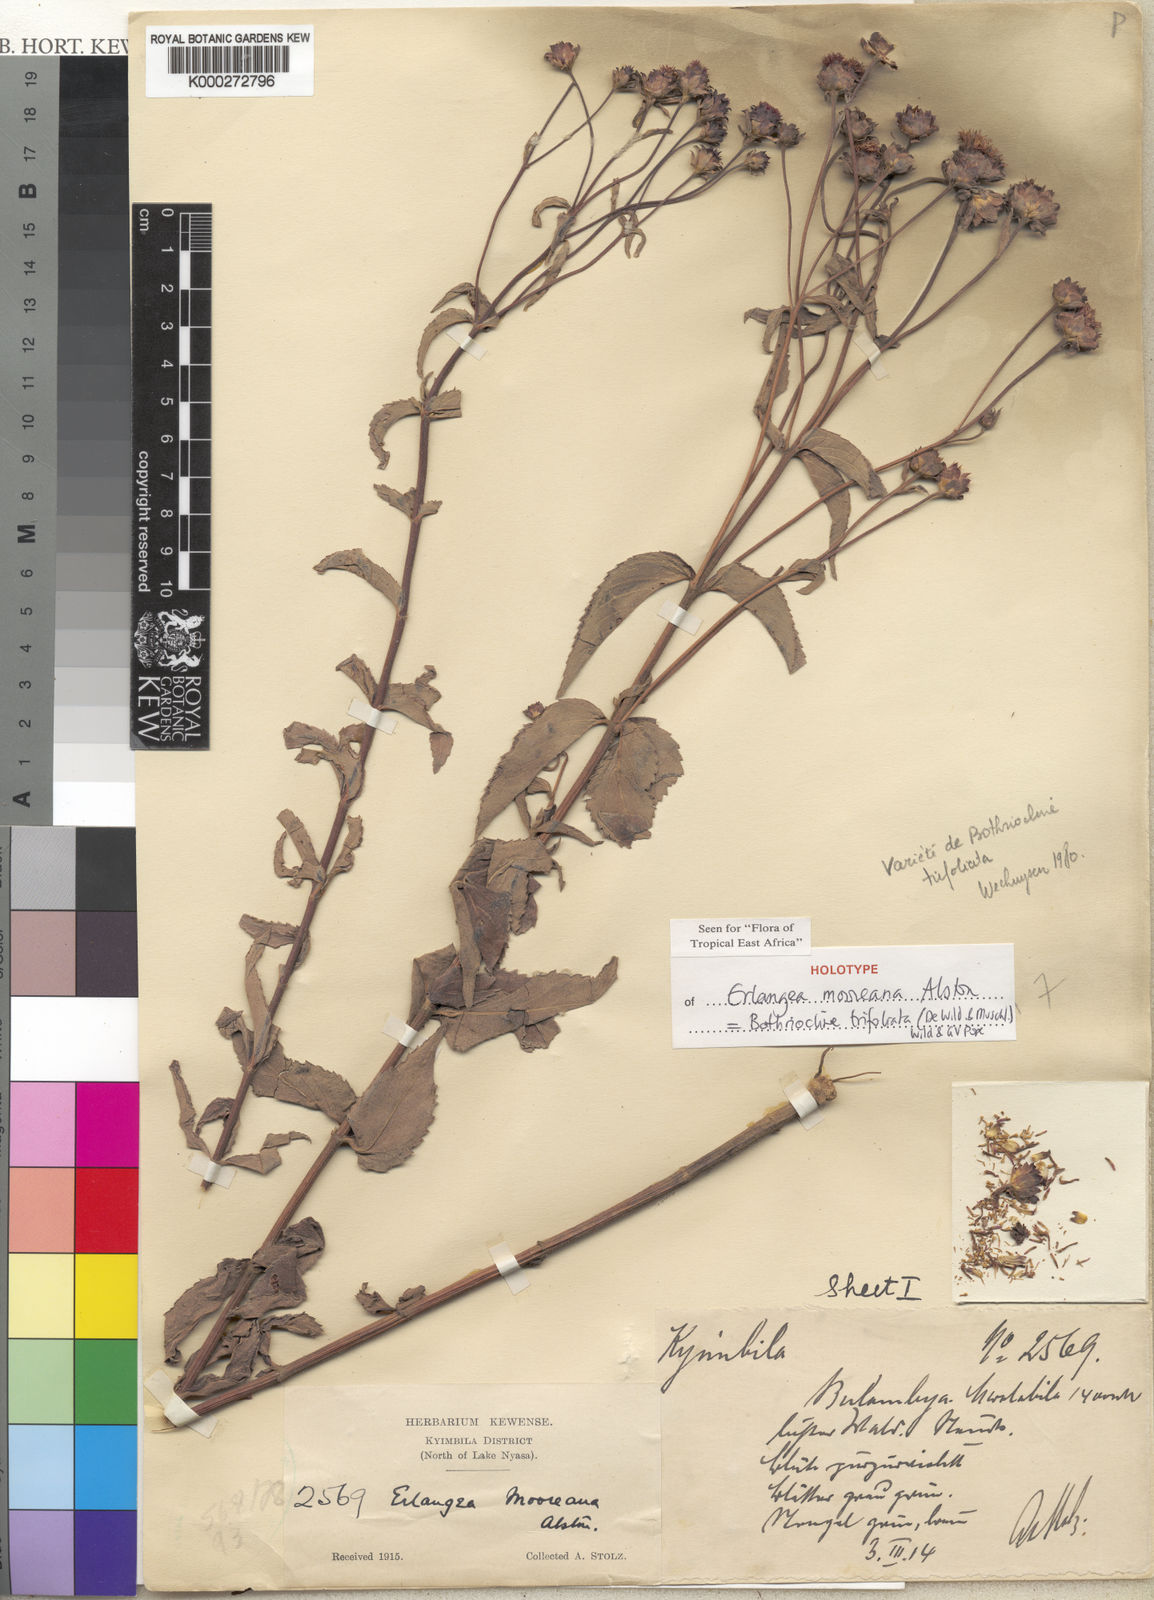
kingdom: Plantae
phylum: Tracheophyta
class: Magnoliopsida
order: Asterales
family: Asteraceae
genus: Bothriocline
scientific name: Bothriocline trifoliata
